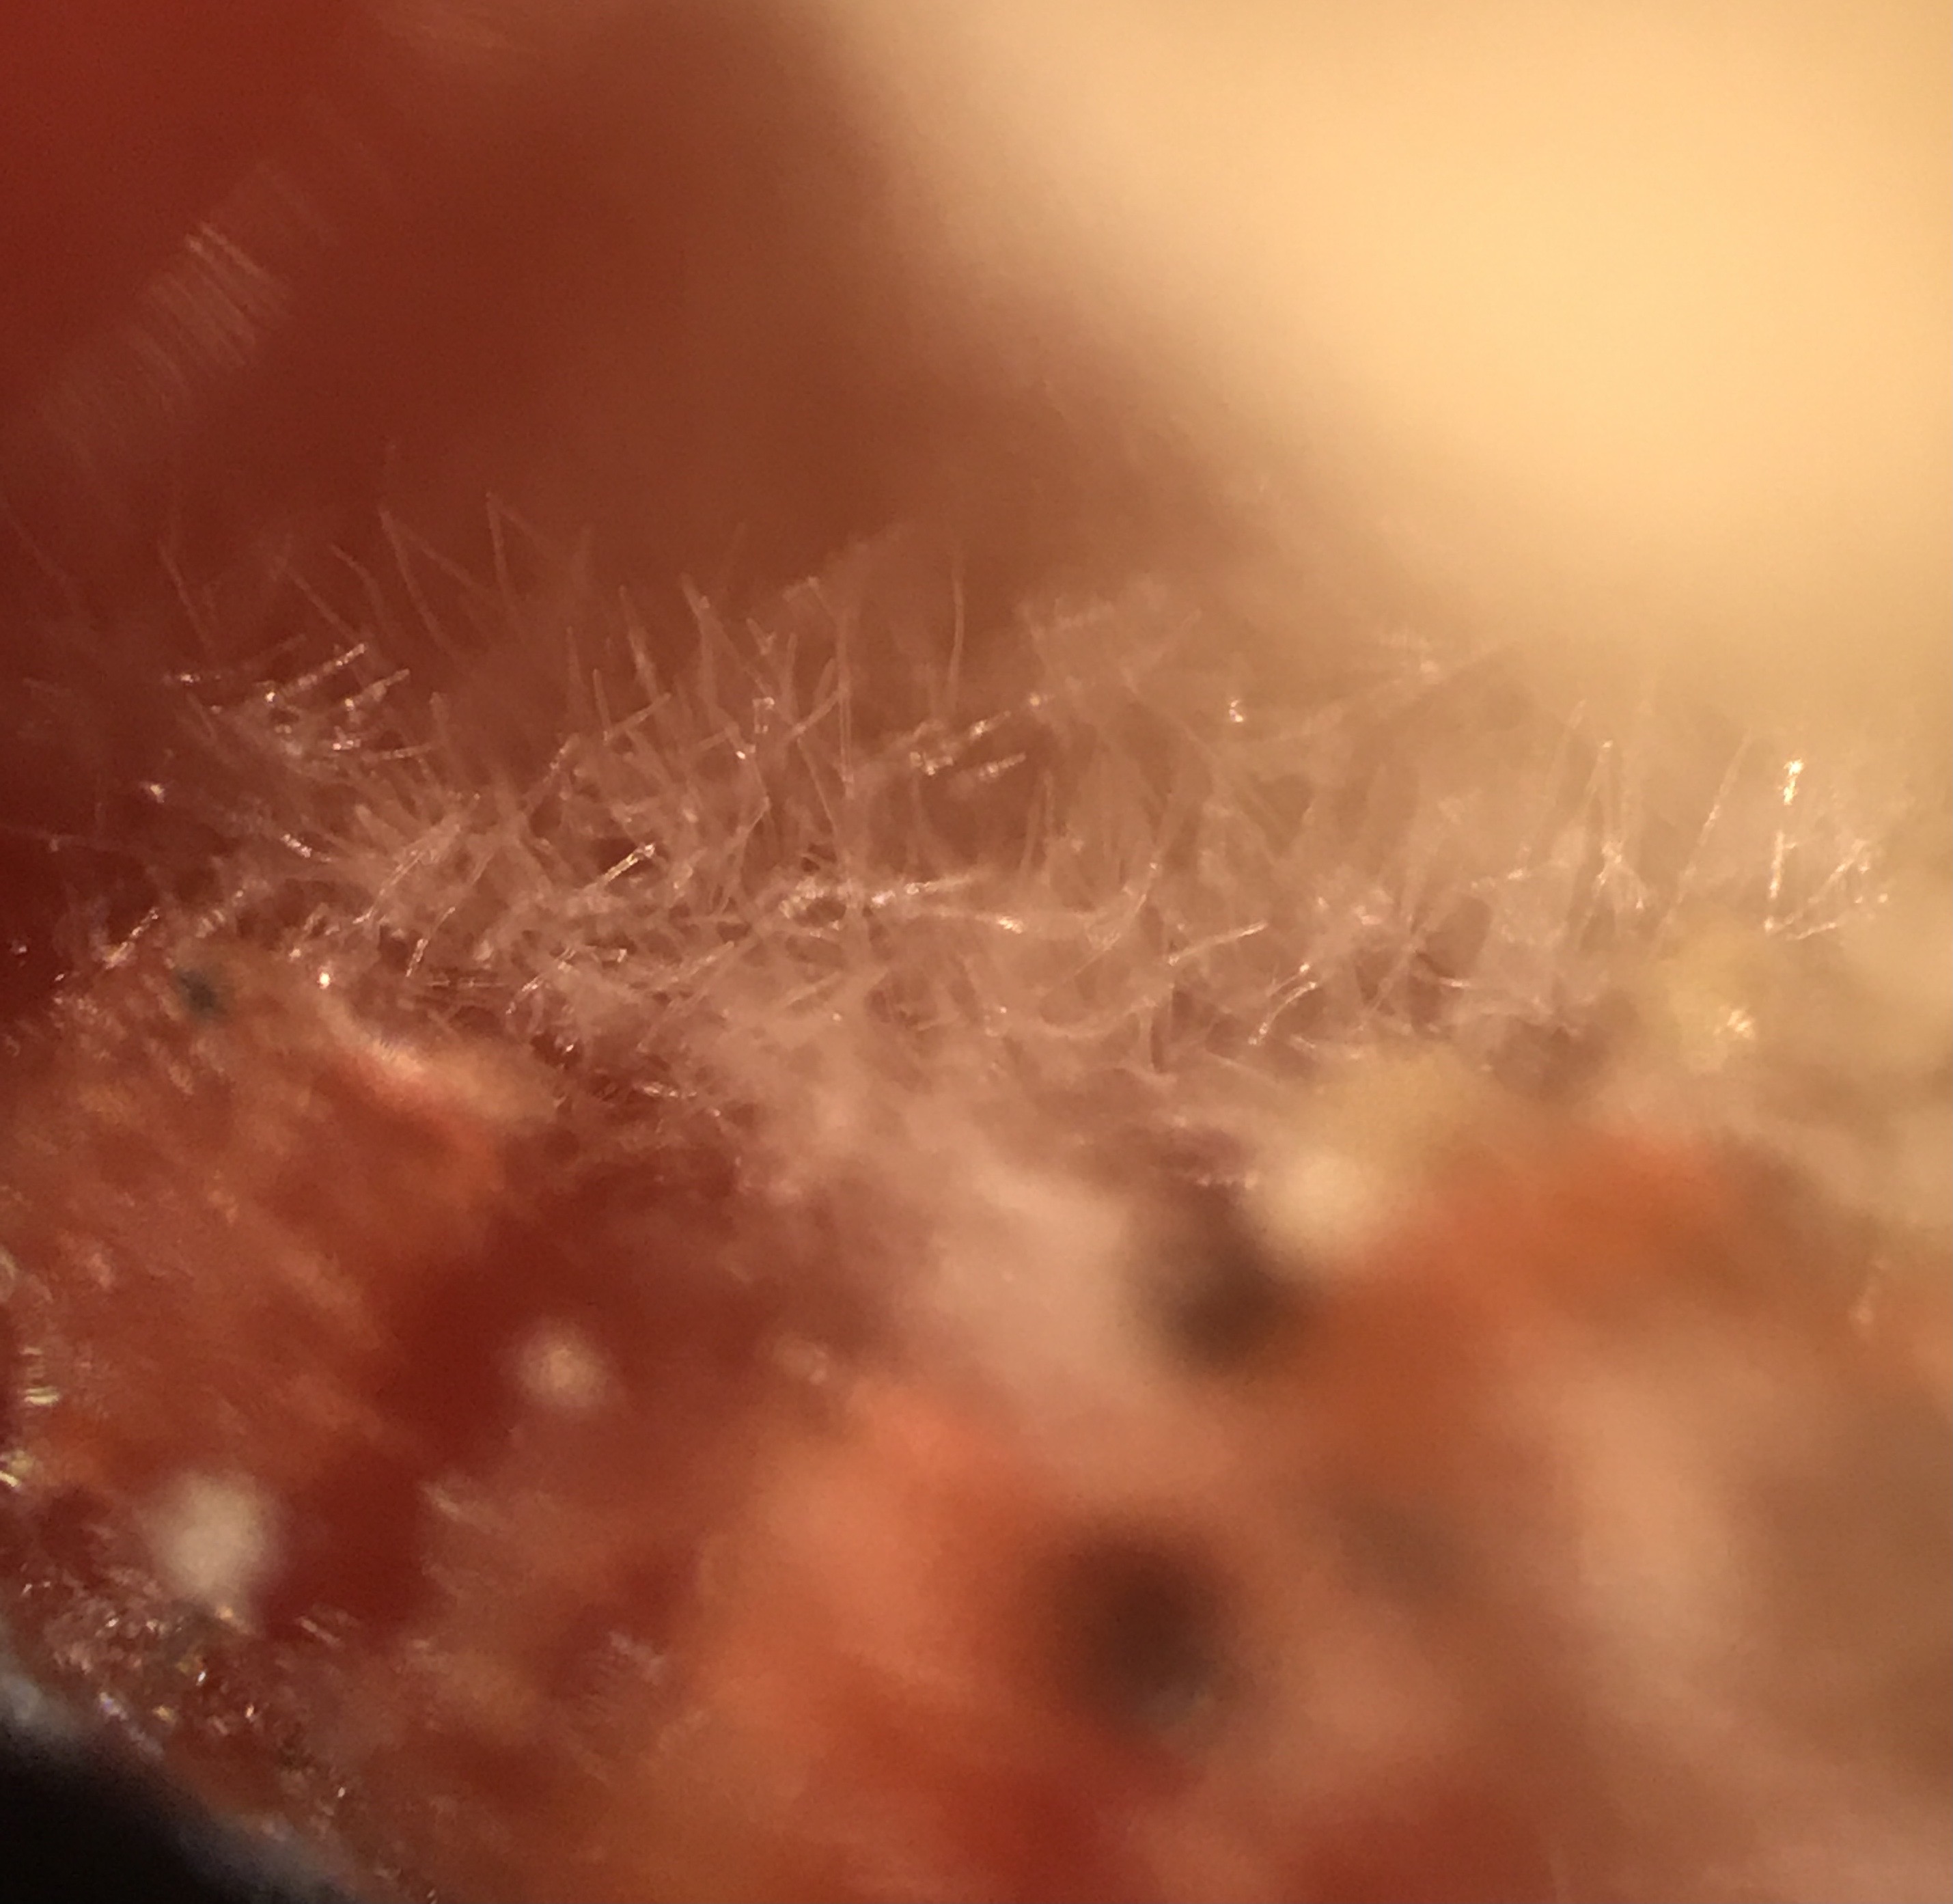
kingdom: Fungi
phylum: Ascomycota
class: Pezizomycetes
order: Pezizales
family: Sarcoscyphaceae
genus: Sarcoscypha
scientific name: Sarcoscypha austriaca
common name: krølhåret pragtbæger
